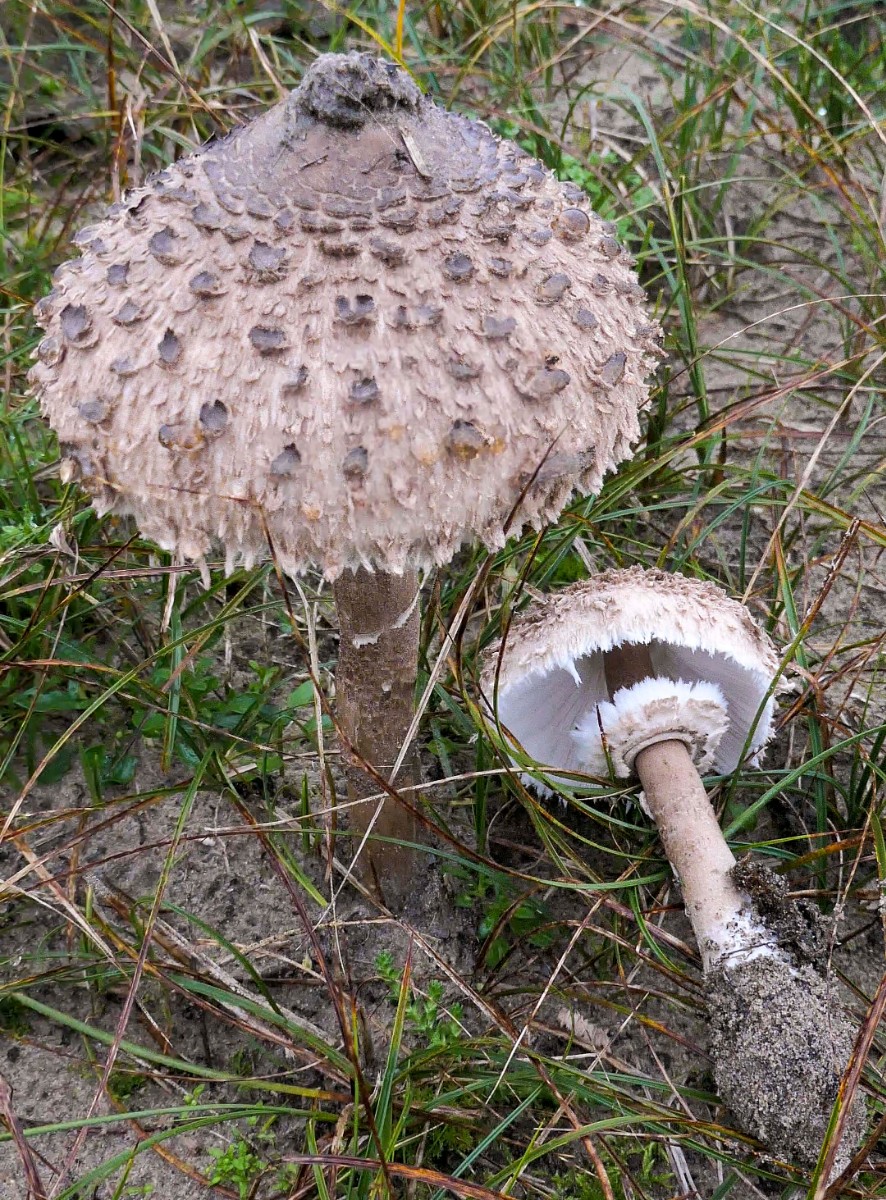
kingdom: Fungi
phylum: Basidiomycota
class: Agaricomycetes
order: Agaricales
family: Agaricaceae
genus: Macrolepiota
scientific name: Macrolepiota procera
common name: stor kæmpeparasolhat
